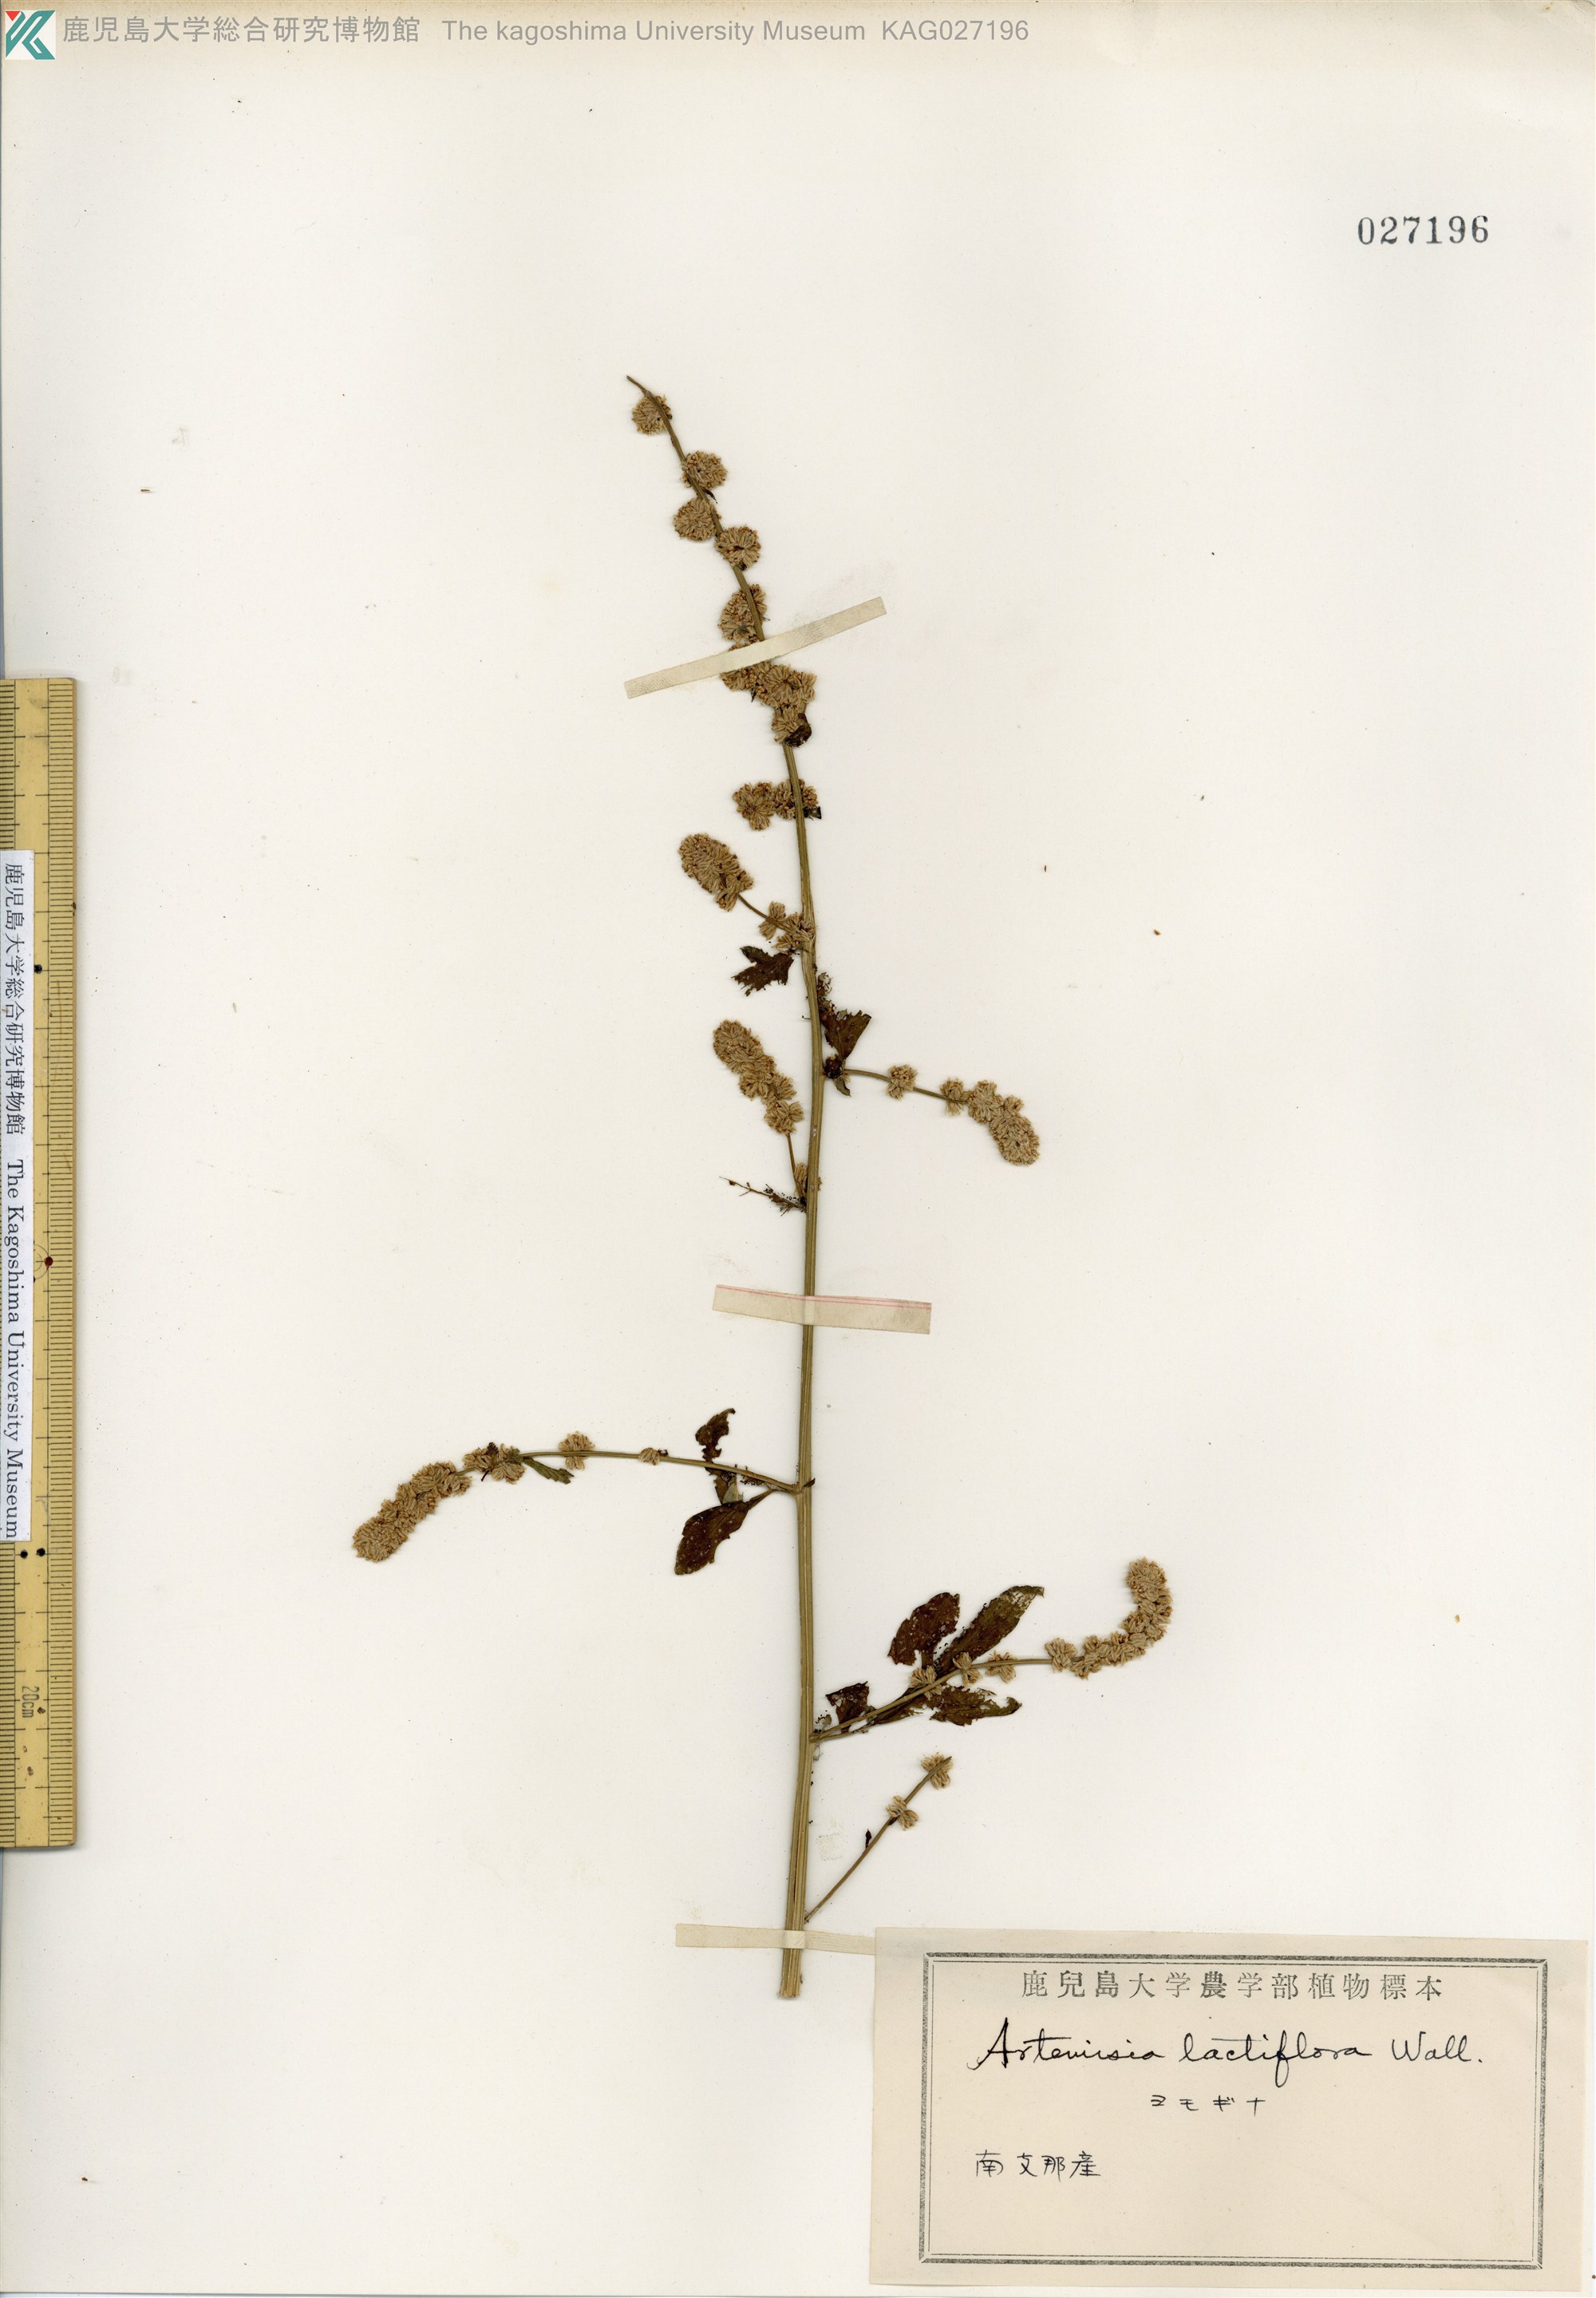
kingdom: Plantae
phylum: Tracheophyta
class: Magnoliopsida
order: Asterales
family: Asteraceae
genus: Artemisia
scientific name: Artemisia lactiflora
